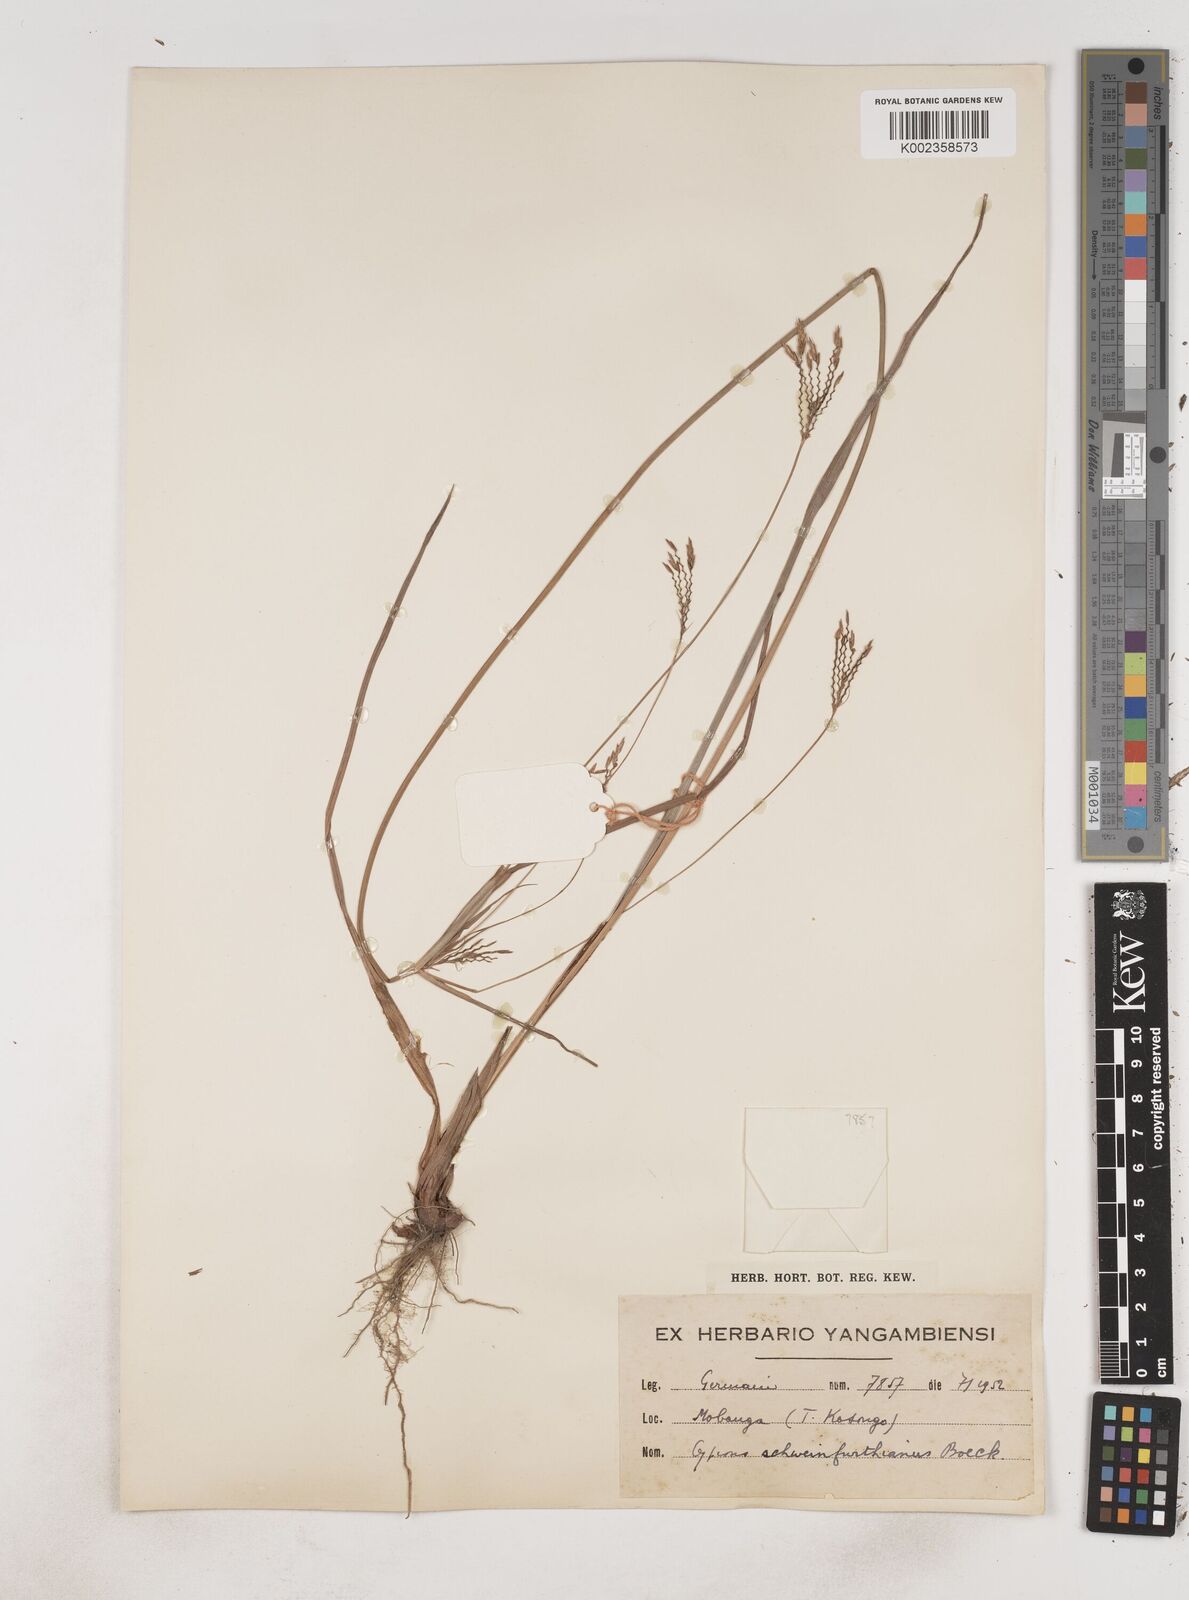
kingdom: Plantae
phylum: Tracheophyta
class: Liliopsida
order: Poales
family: Cyperaceae
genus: Cyperus
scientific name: Cyperus tenuiculmis
